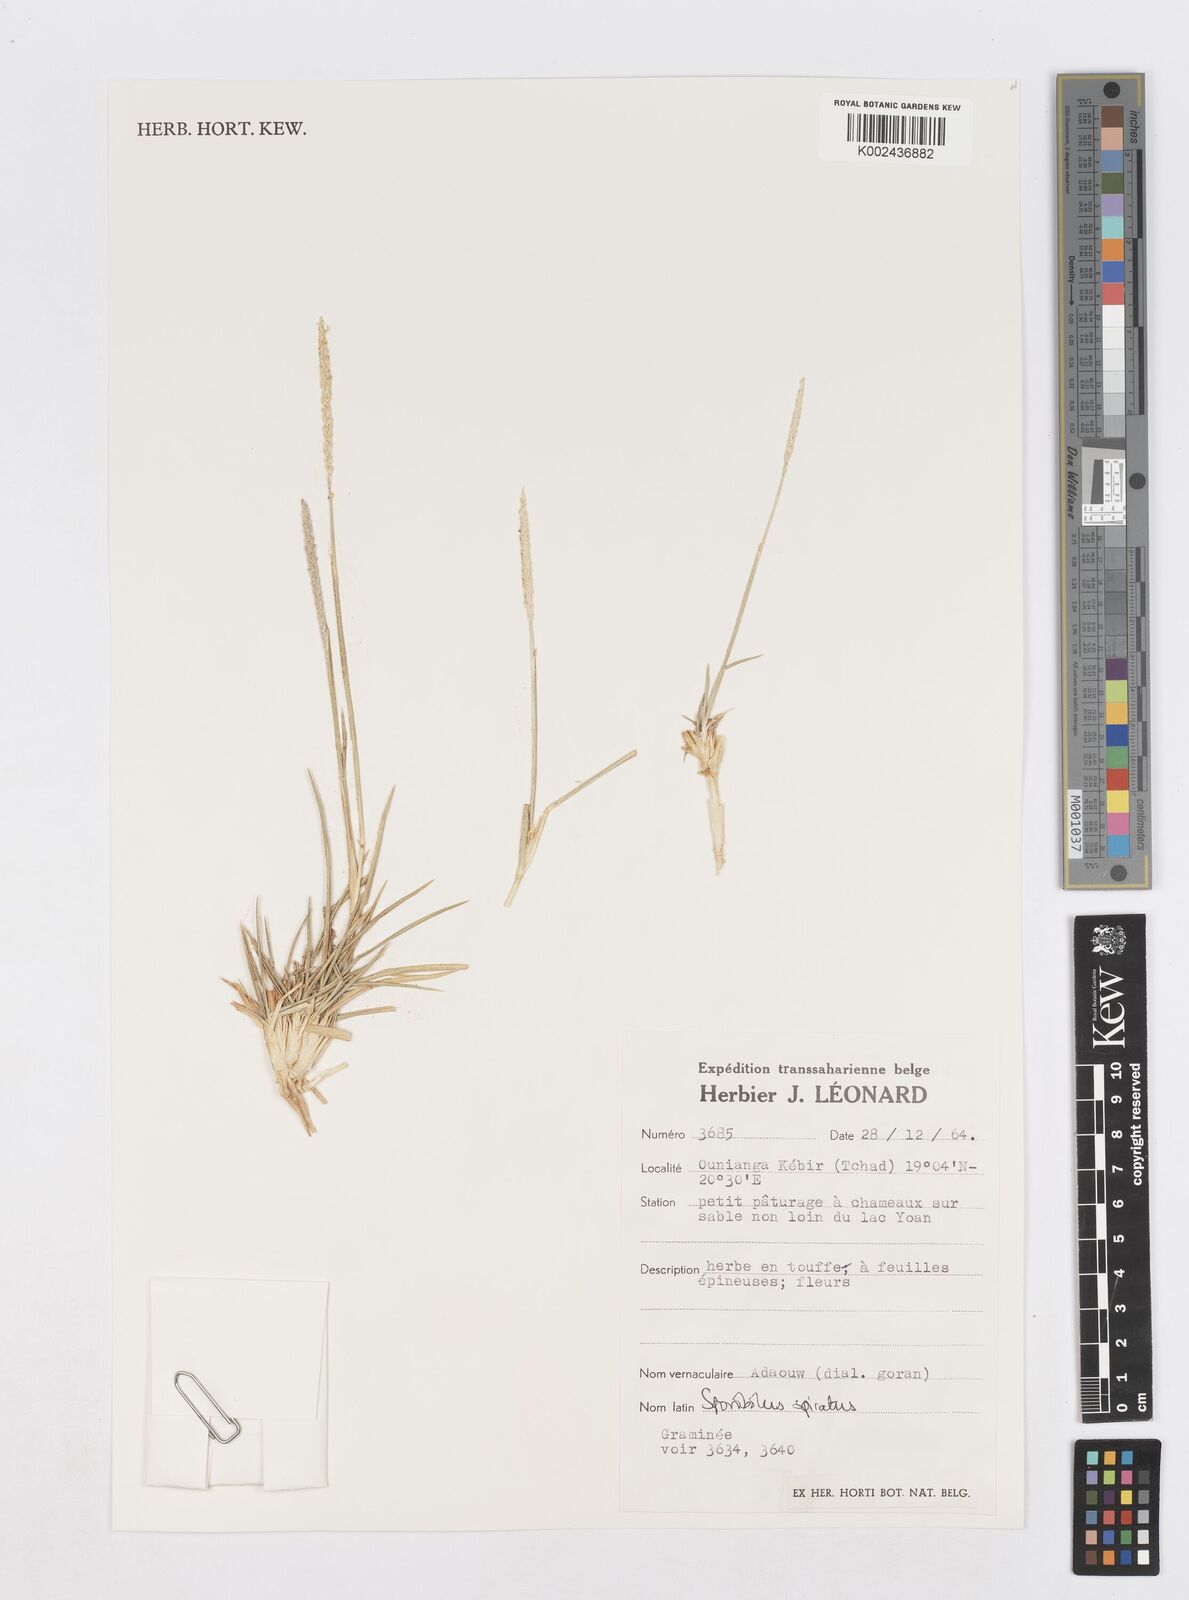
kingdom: Plantae
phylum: Tracheophyta
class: Liliopsida
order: Poales
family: Poaceae
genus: Sporobolus
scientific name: Sporobolus spicatus
